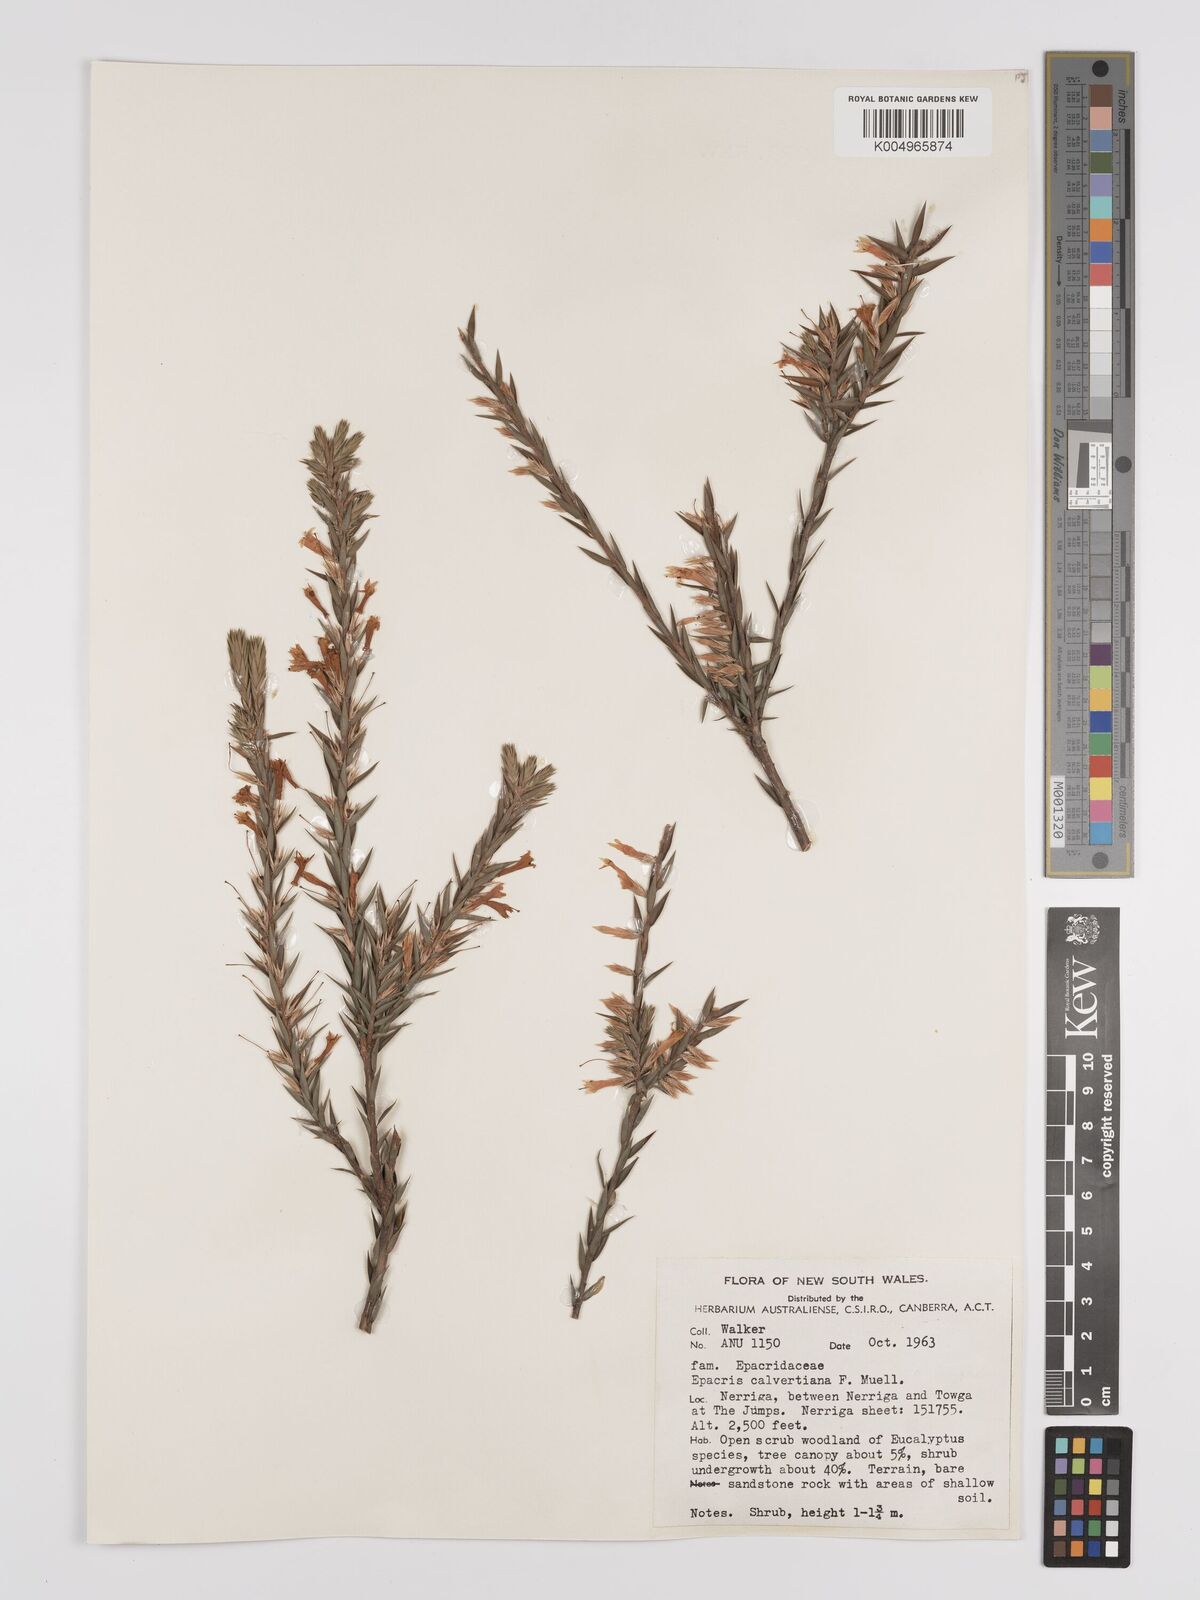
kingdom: Plantae
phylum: Tracheophyta
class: Magnoliopsida
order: Ericales
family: Ericaceae
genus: Epacris
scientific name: Epacris calvertiana
